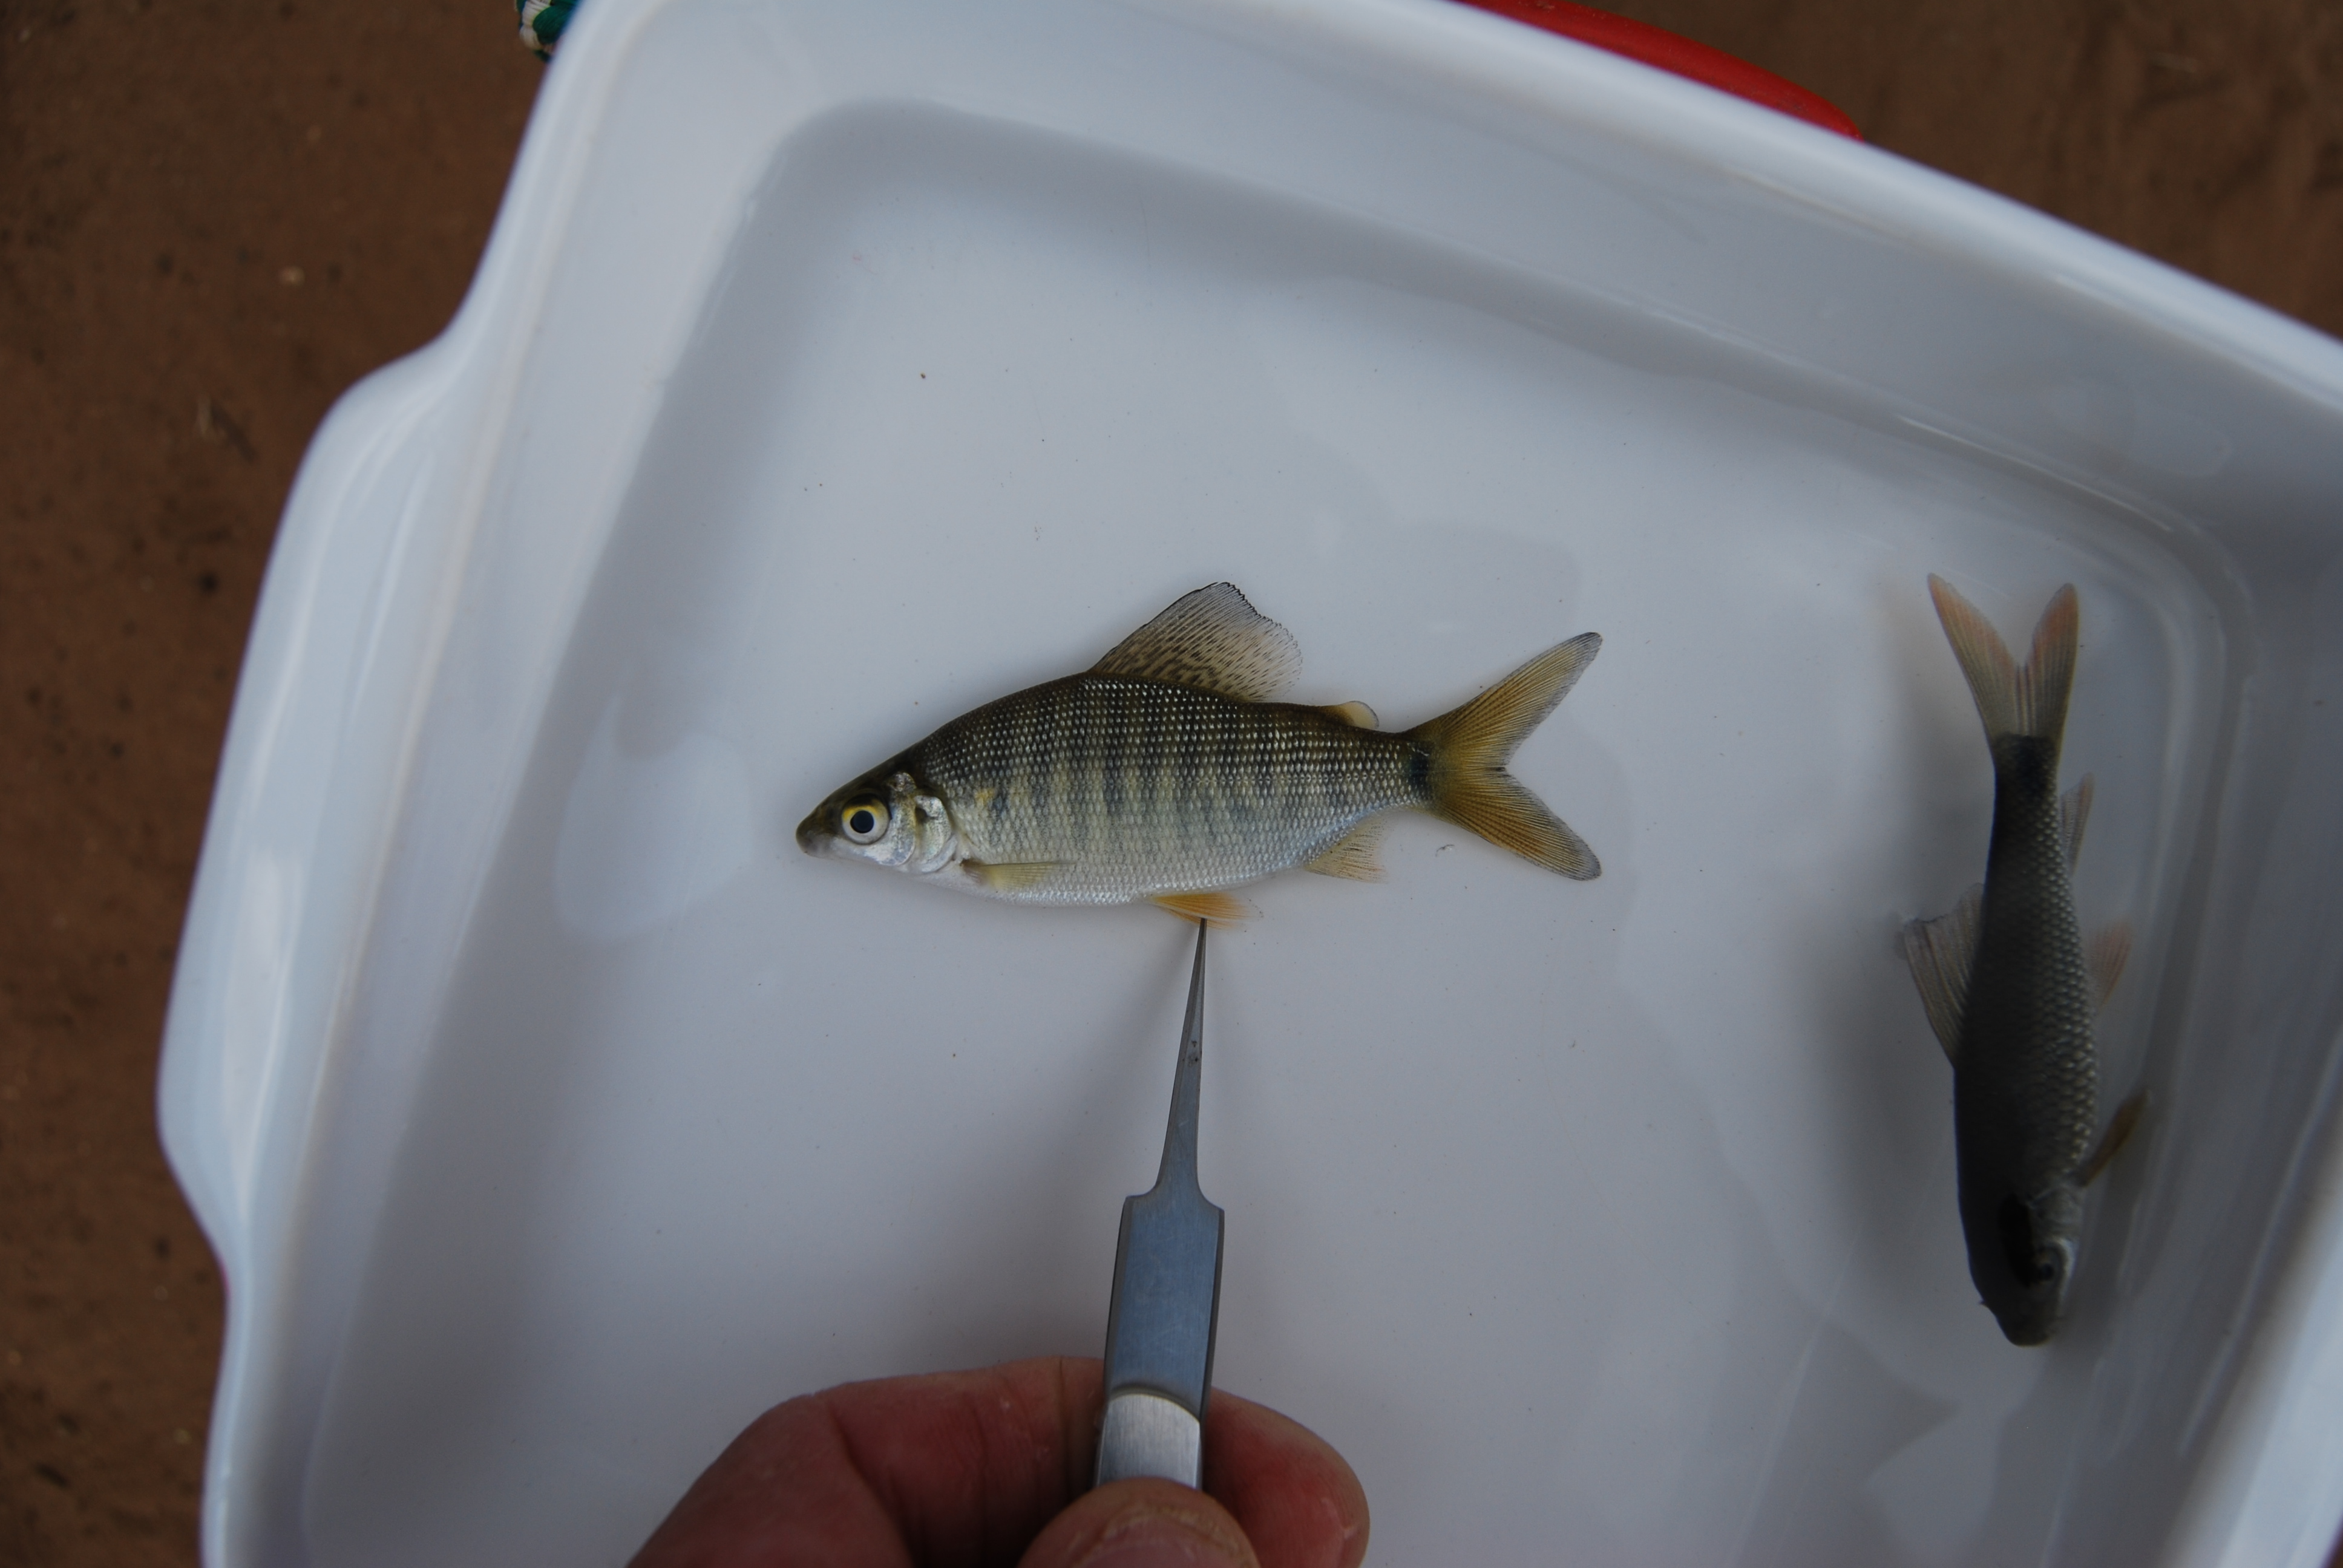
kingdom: Animalia
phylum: Chordata
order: Characiformes
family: Distichodontidae
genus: Distichodus
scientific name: Distichodus schenga
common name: Chessa
